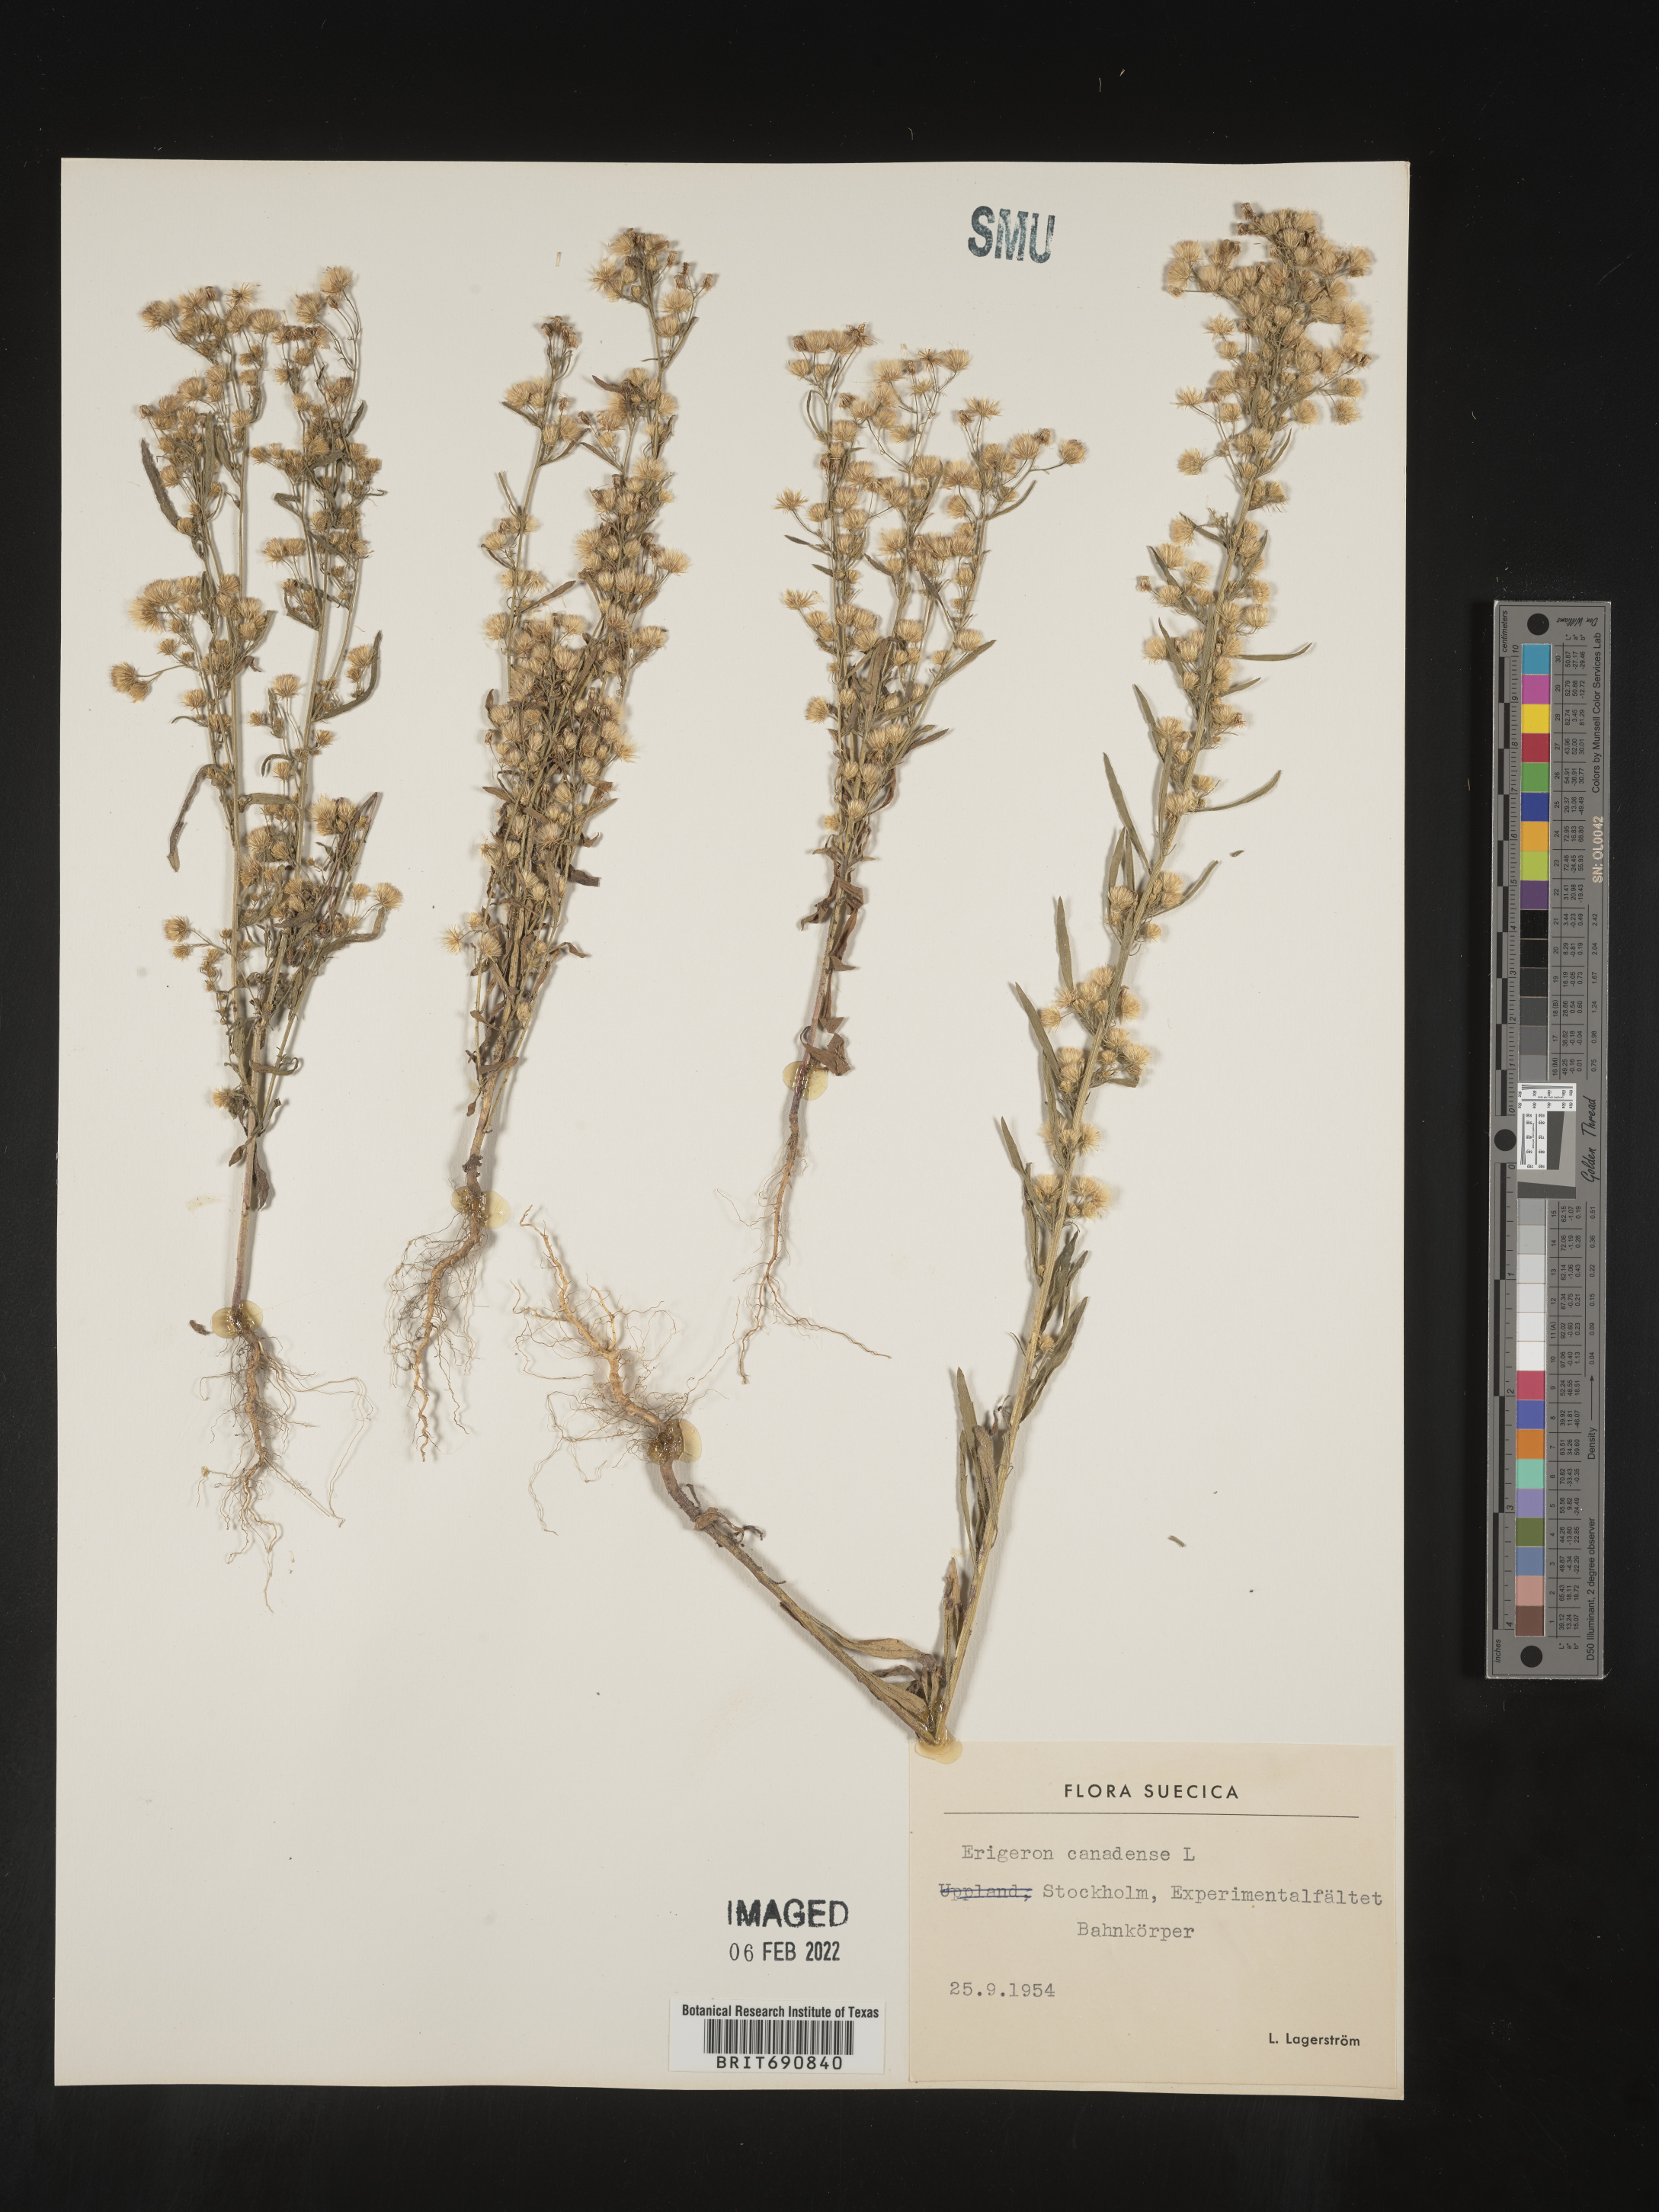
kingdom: Plantae
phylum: Tracheophyta
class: Magnoliopsida
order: Asterales
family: Asteraceae
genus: Conyza
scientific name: Conyza
